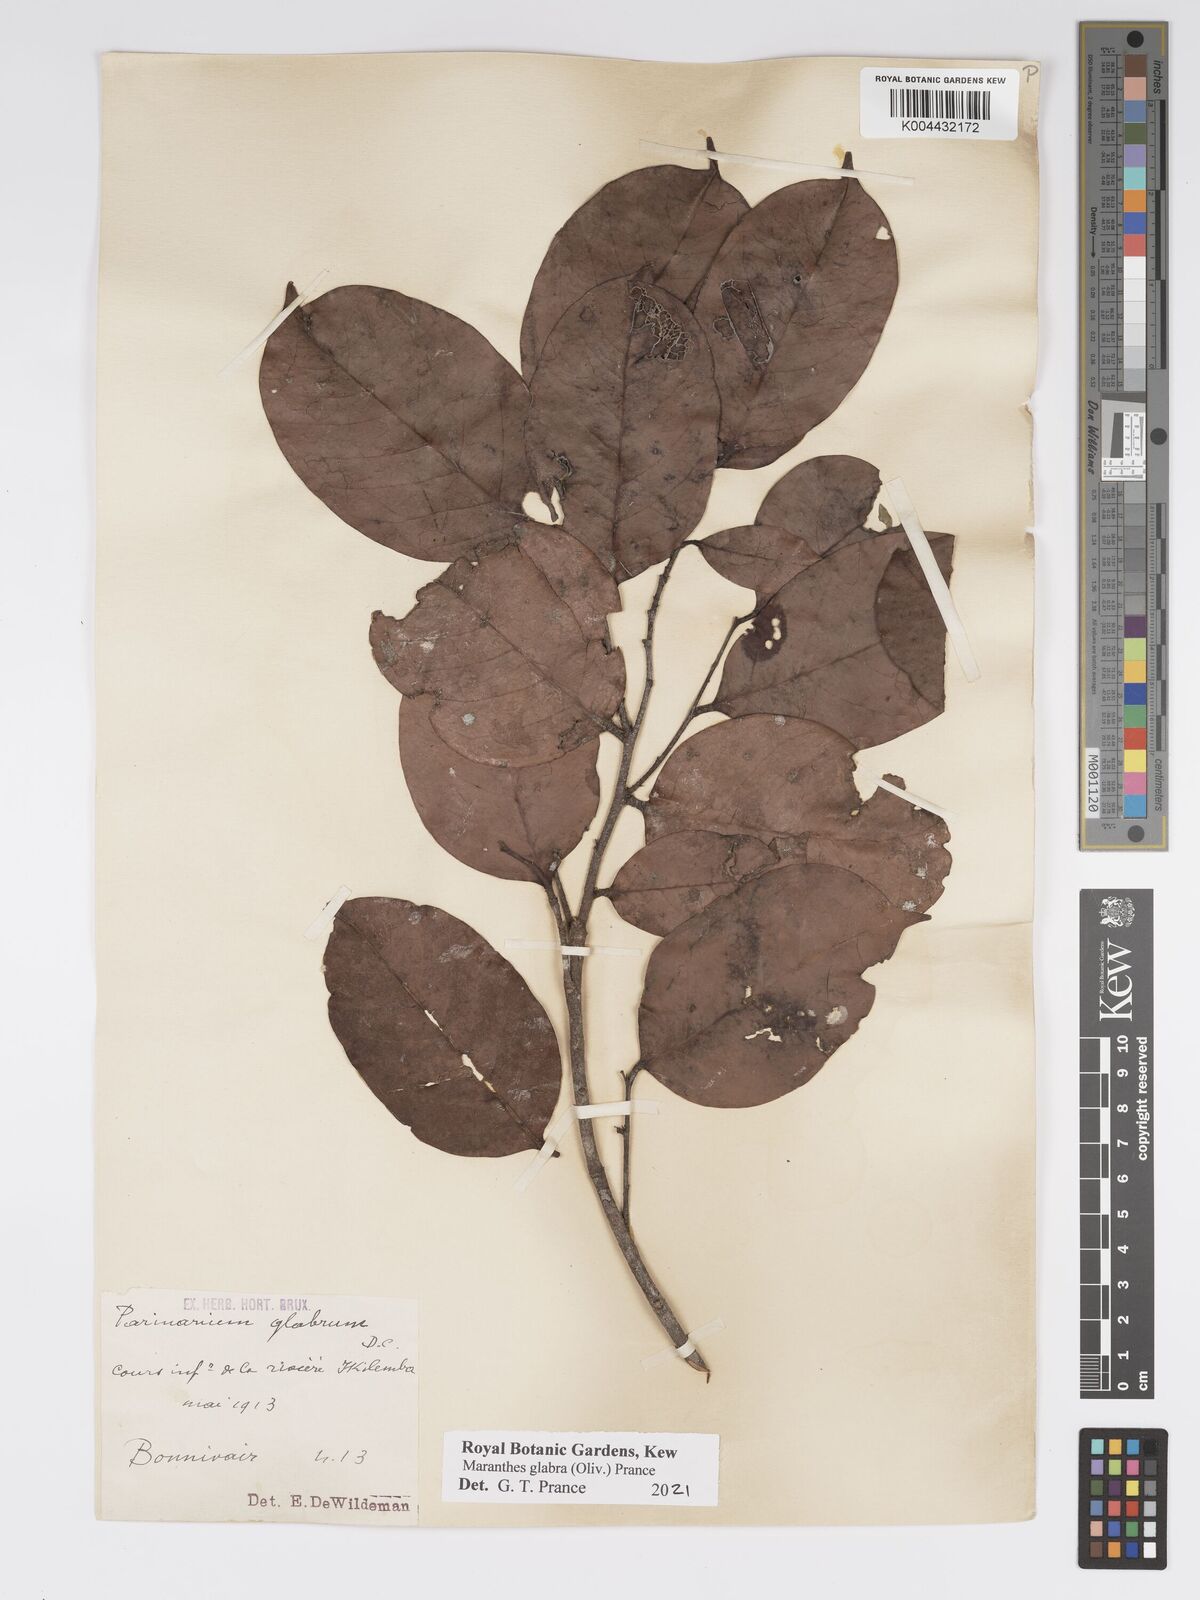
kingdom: Plantae
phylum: Tracheophyta
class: Magnoliopsida
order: Malpighiales
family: Chrysobalanaceae
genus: Maranthes
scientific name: Maranthes glabra
